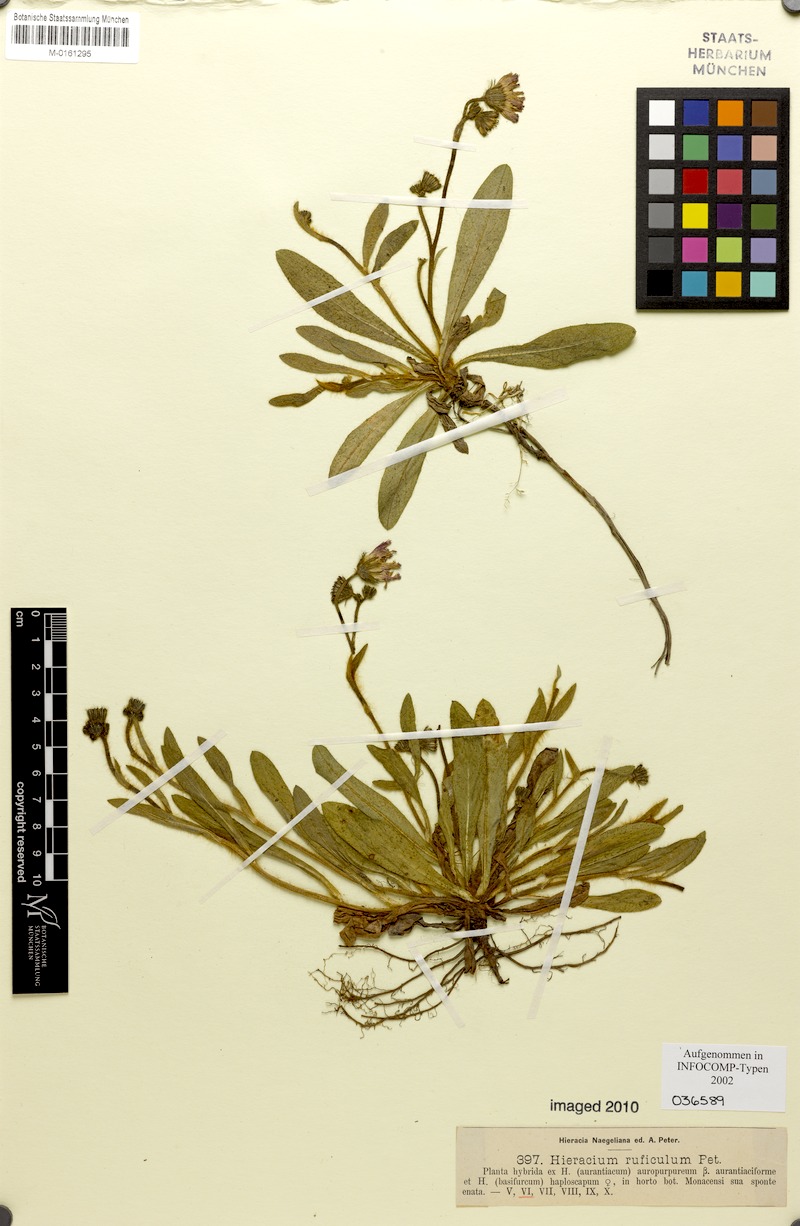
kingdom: Plantae
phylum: Tracheophyta
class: Magnoliopsida
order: Asterales
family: Asteraceae
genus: Hieracium
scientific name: Hieracium ruficulum
